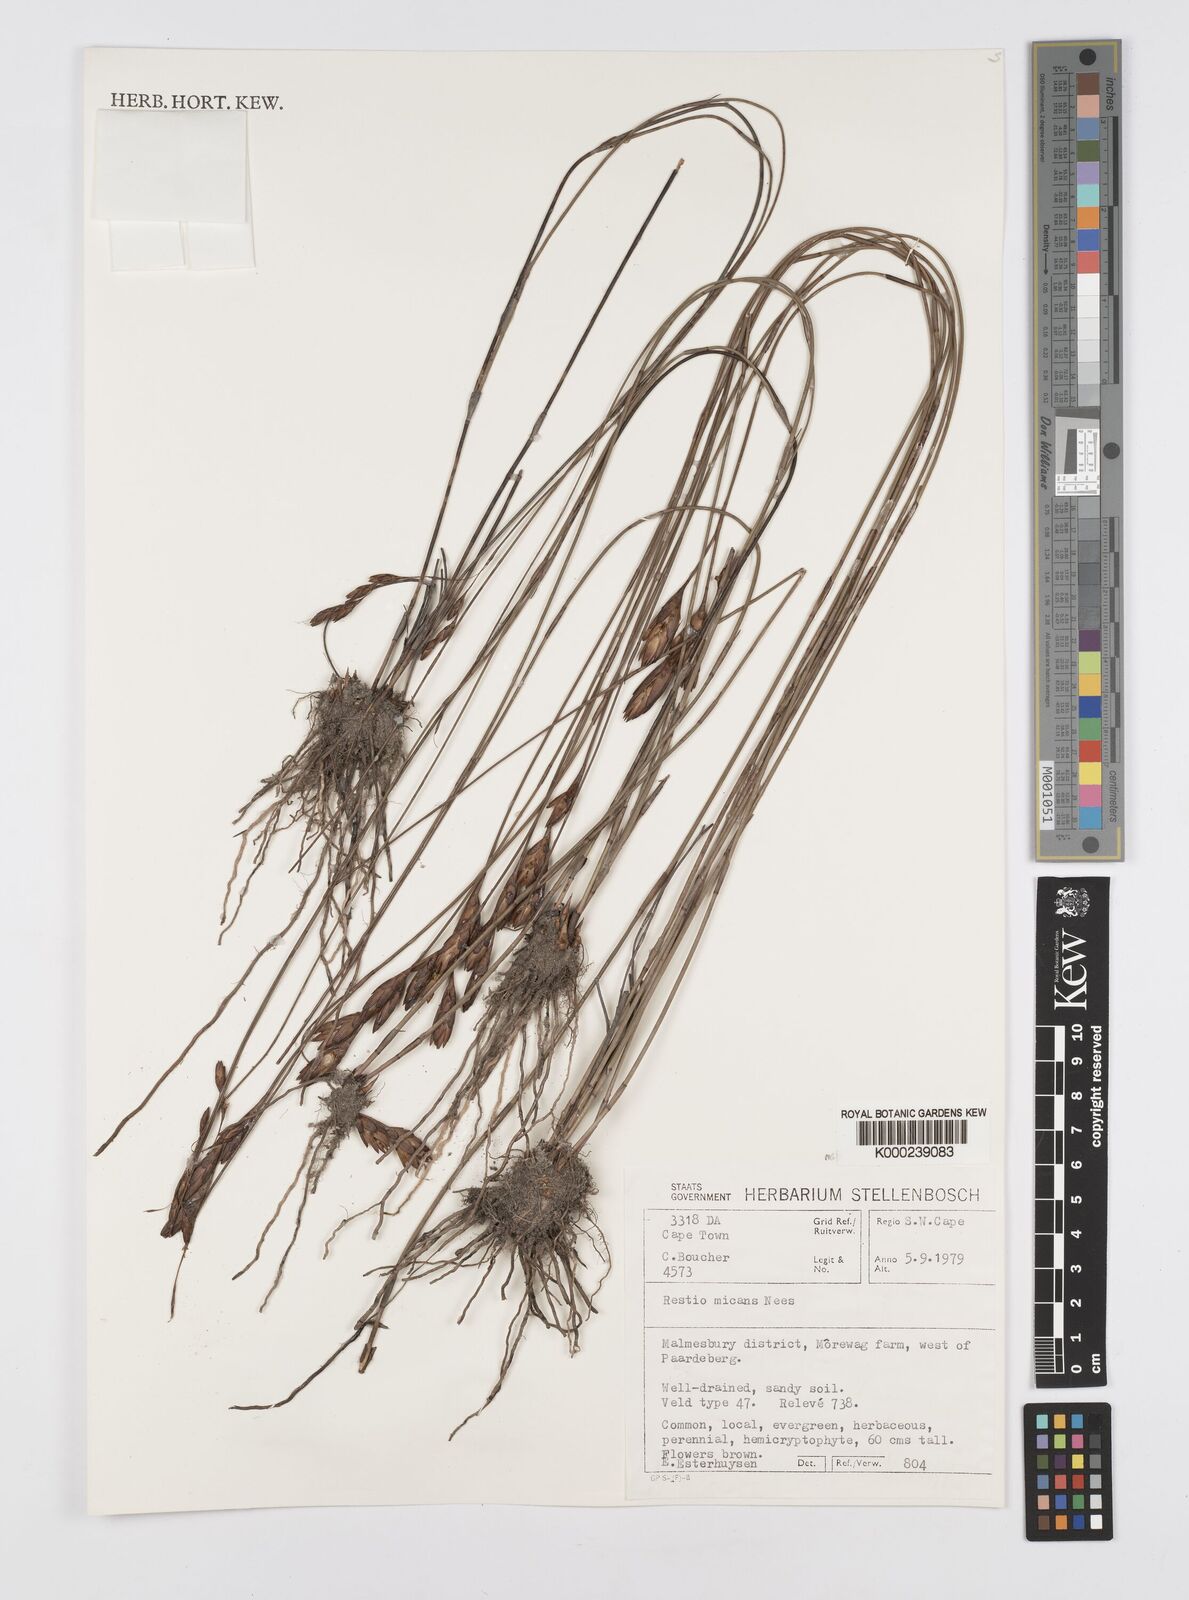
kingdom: Plantae
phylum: Tracheophyta
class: Liliopsida
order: Poales
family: Restionaceae
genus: Restio
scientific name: Restio micans
